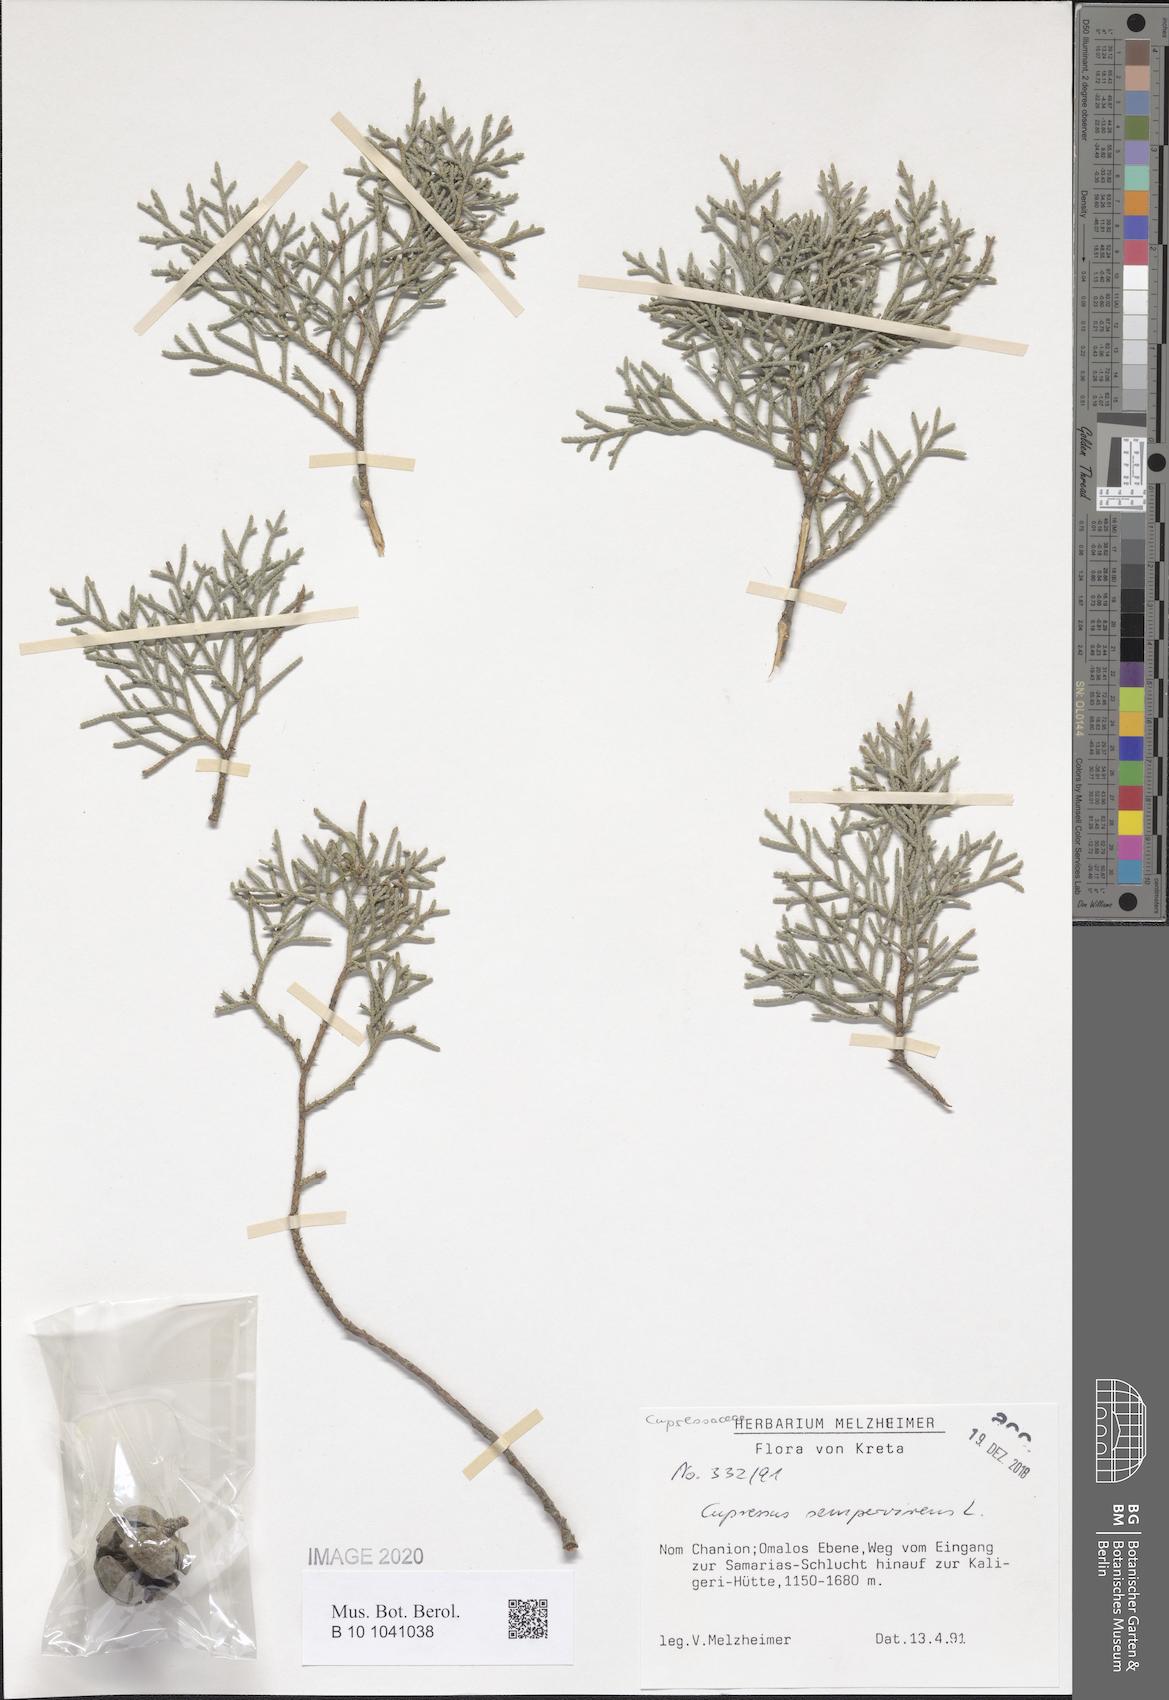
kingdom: Plantae
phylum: Tracheophyta
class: Pinopsida
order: Pinales
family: Cupressaceae
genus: Cupressus
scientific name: Cupressus sempervirens
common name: Italian cypress
